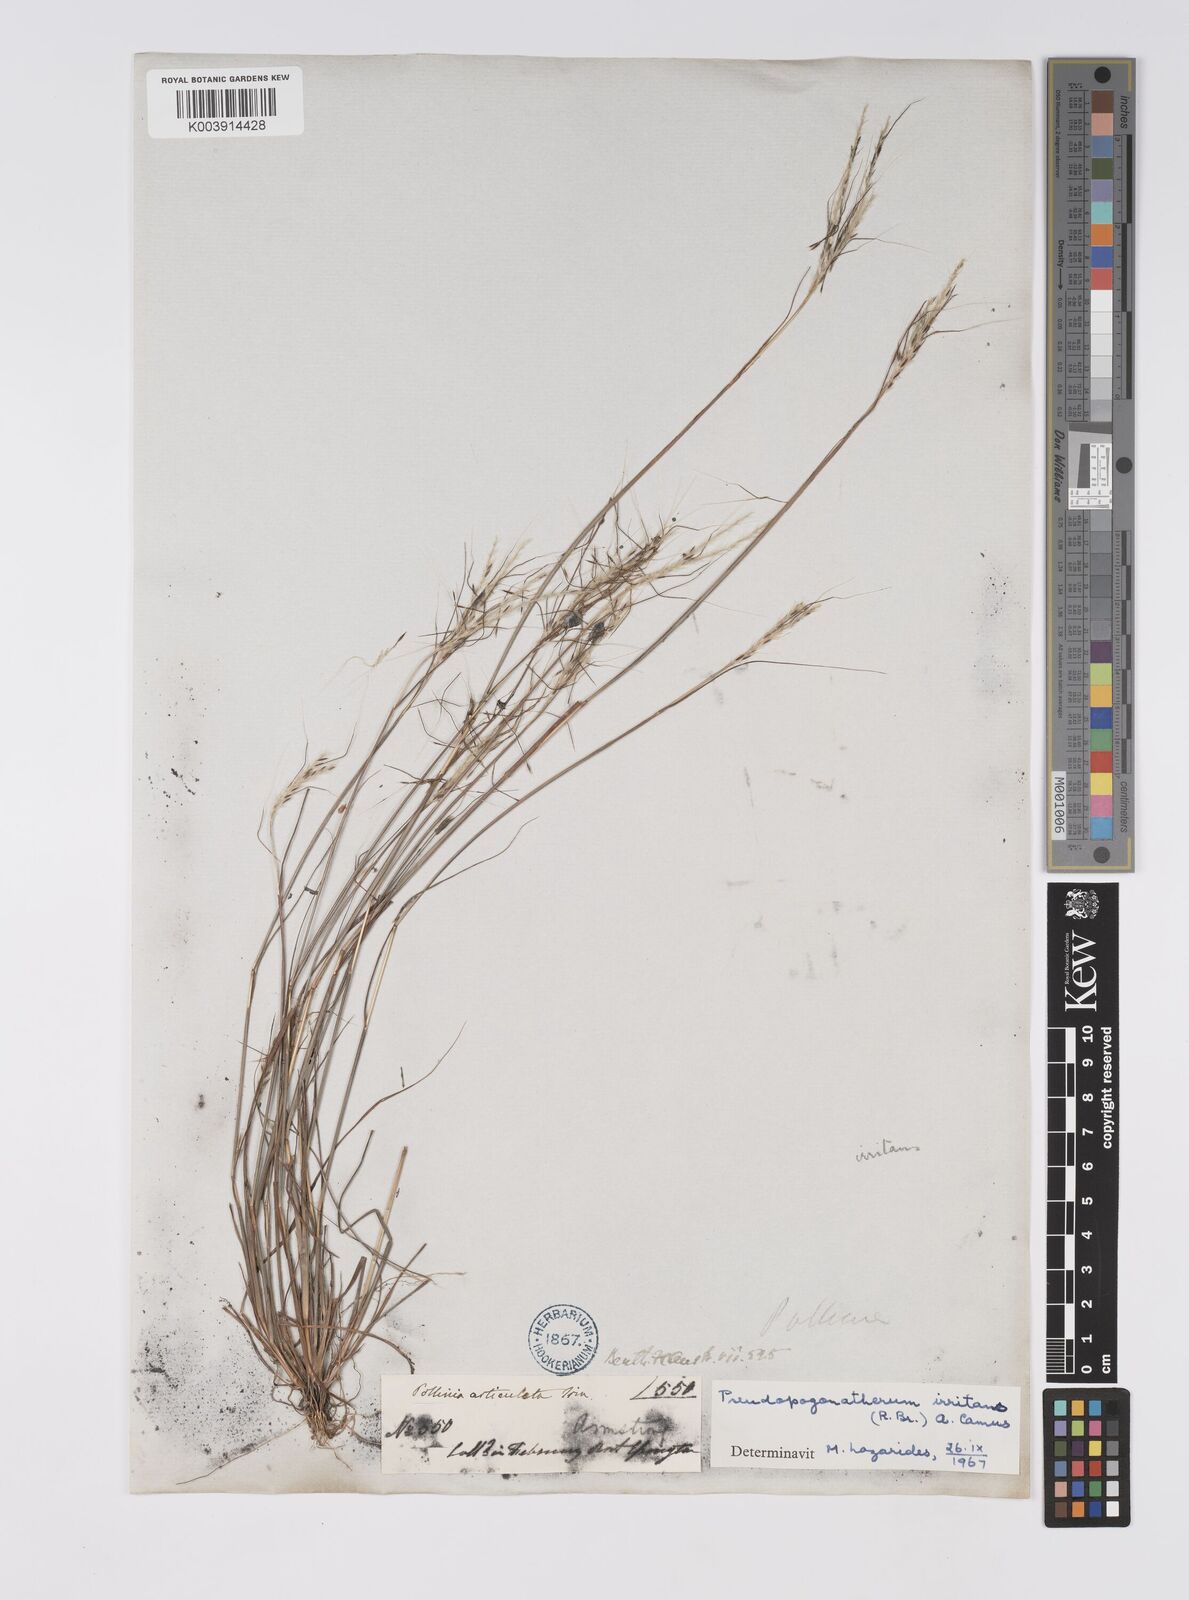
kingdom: Plantae
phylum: Tracheophyta
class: Liliopsida
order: Poales
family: Poaceae
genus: Pseudopogonatherum
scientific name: Pseudopogonatherum irritans
